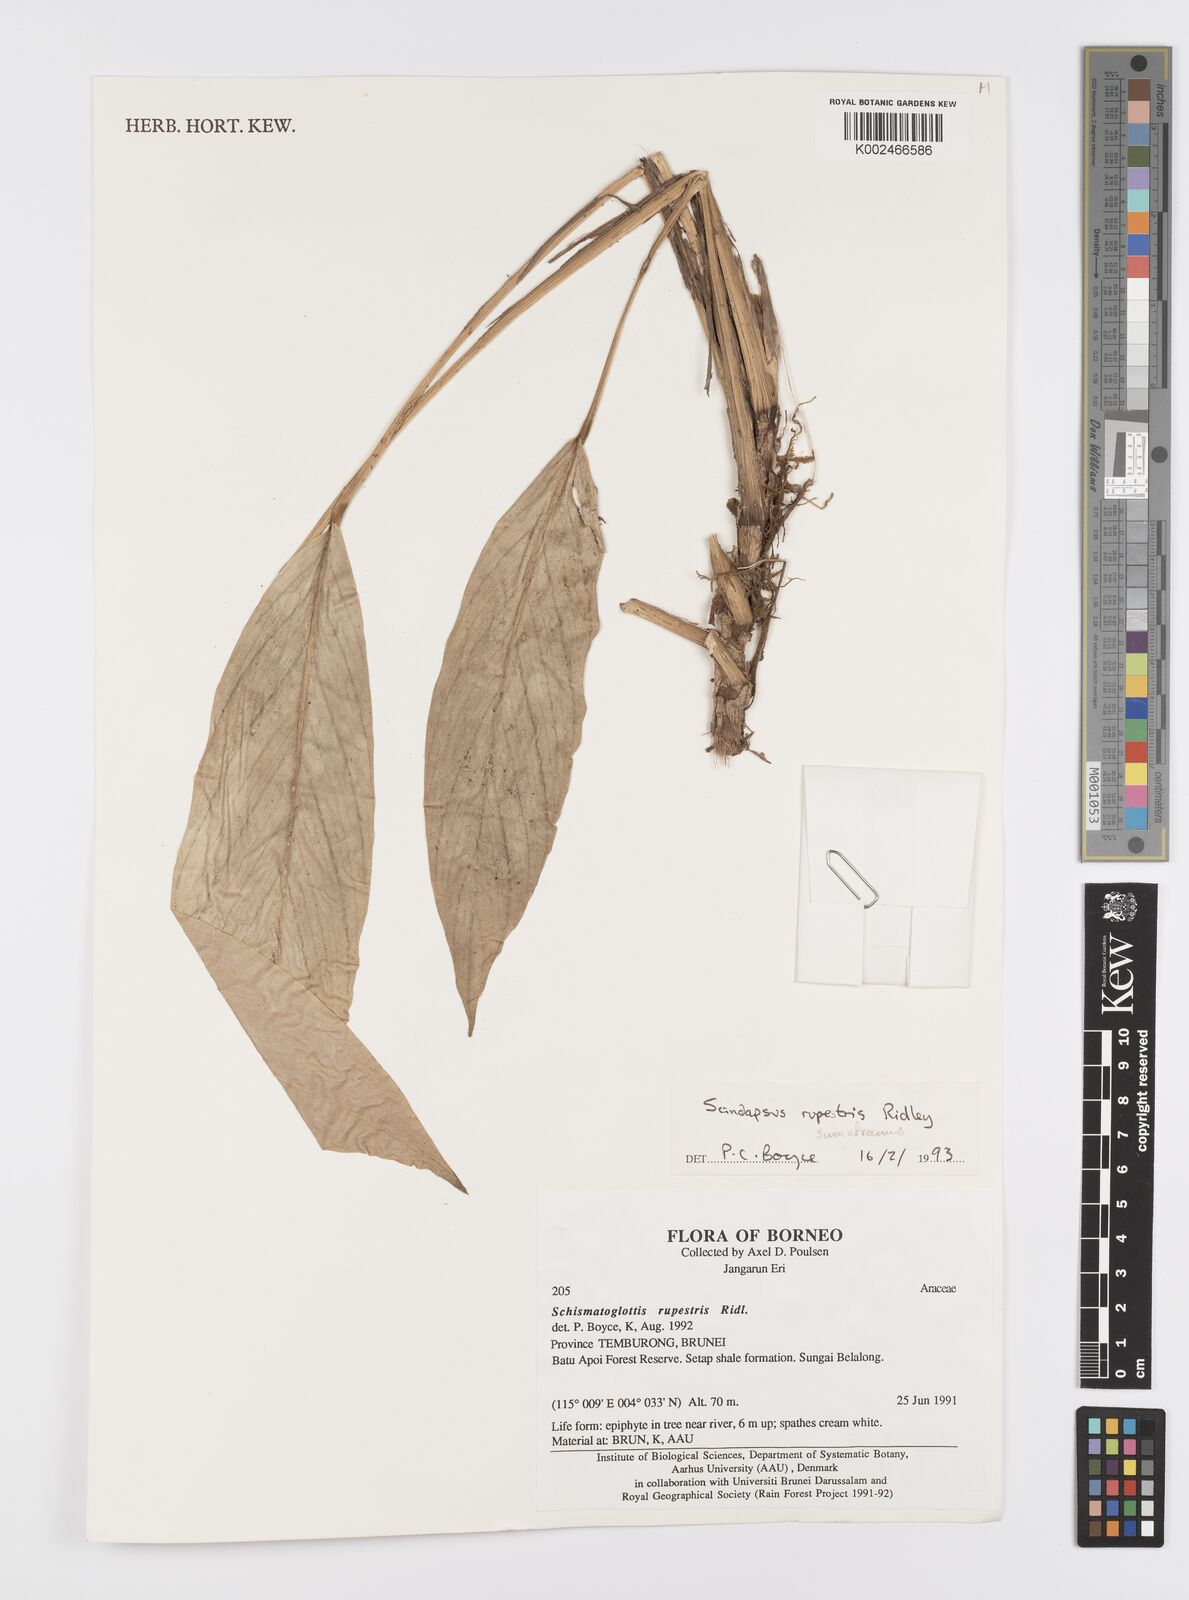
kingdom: Plantae
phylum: Tracheophyta
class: Liliopsida
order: Alismatales
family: Araceae
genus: Scindapsus
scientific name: Scindapsus sumatranus
